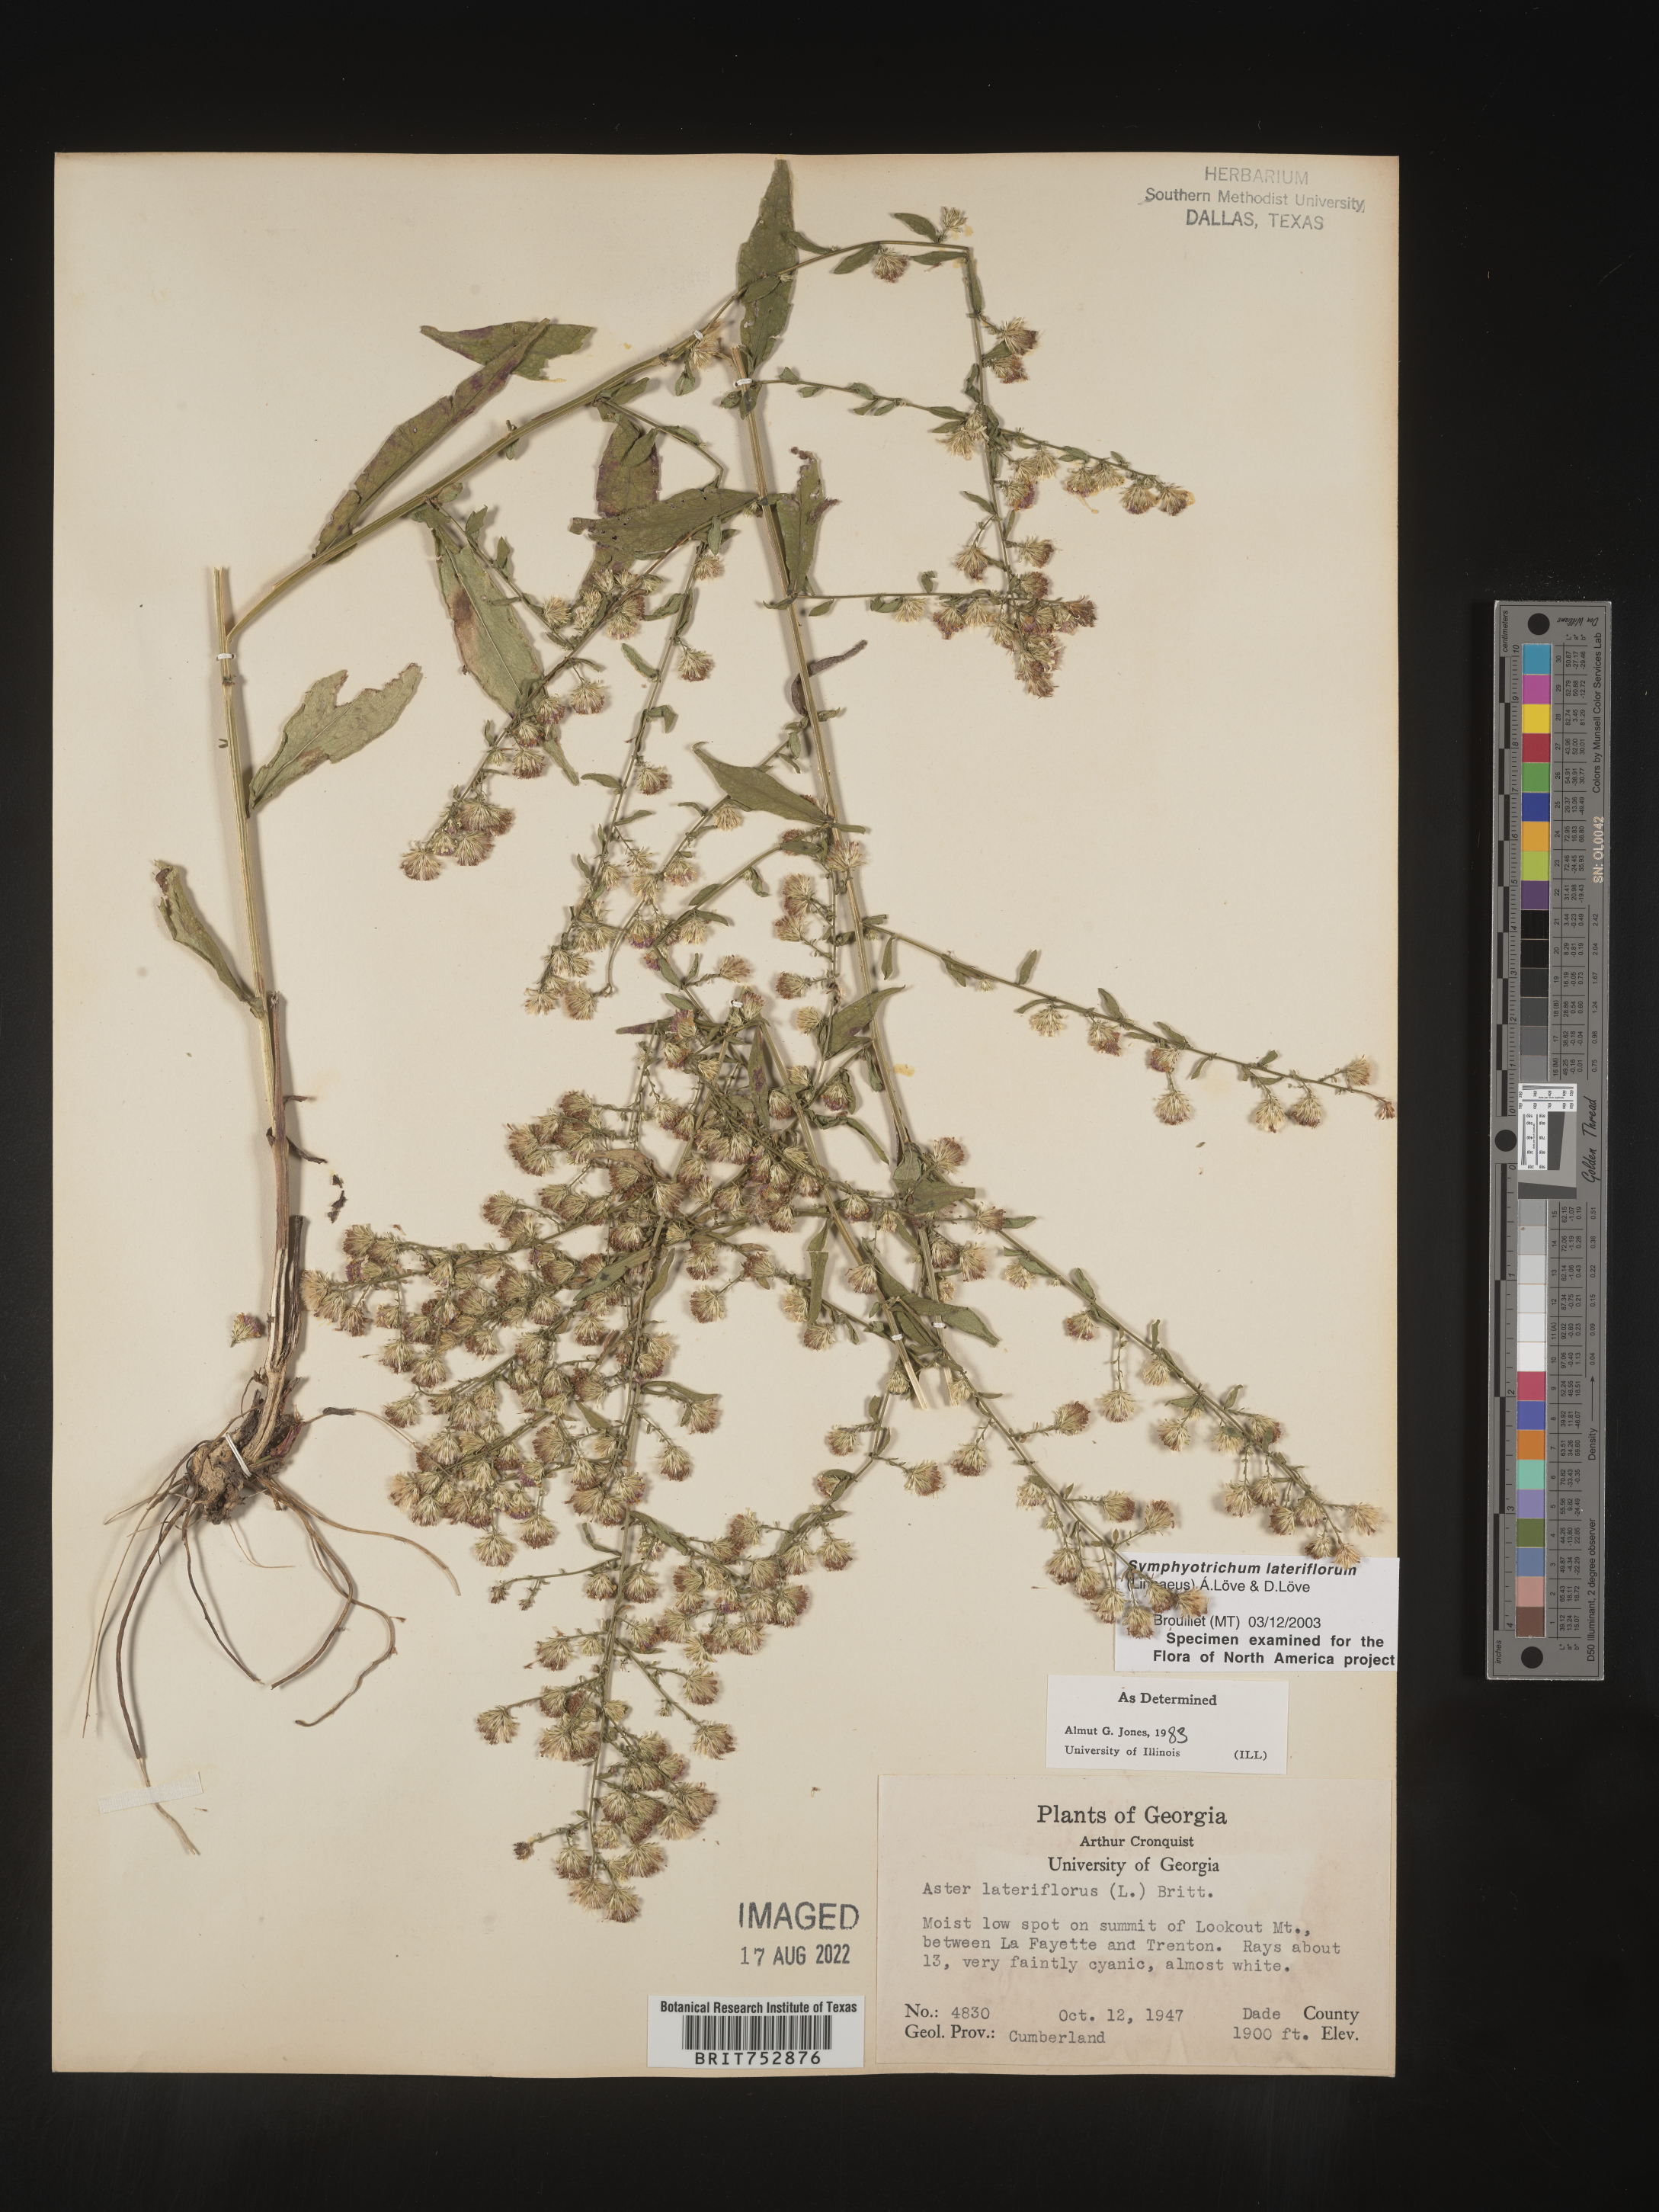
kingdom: Plantae
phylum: Tracheophyta
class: Magnoliopsida
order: Asterales
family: Asteraceae
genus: Symphyotrichum
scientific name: Symphyotrichum lateriflorum
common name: Calico aster
